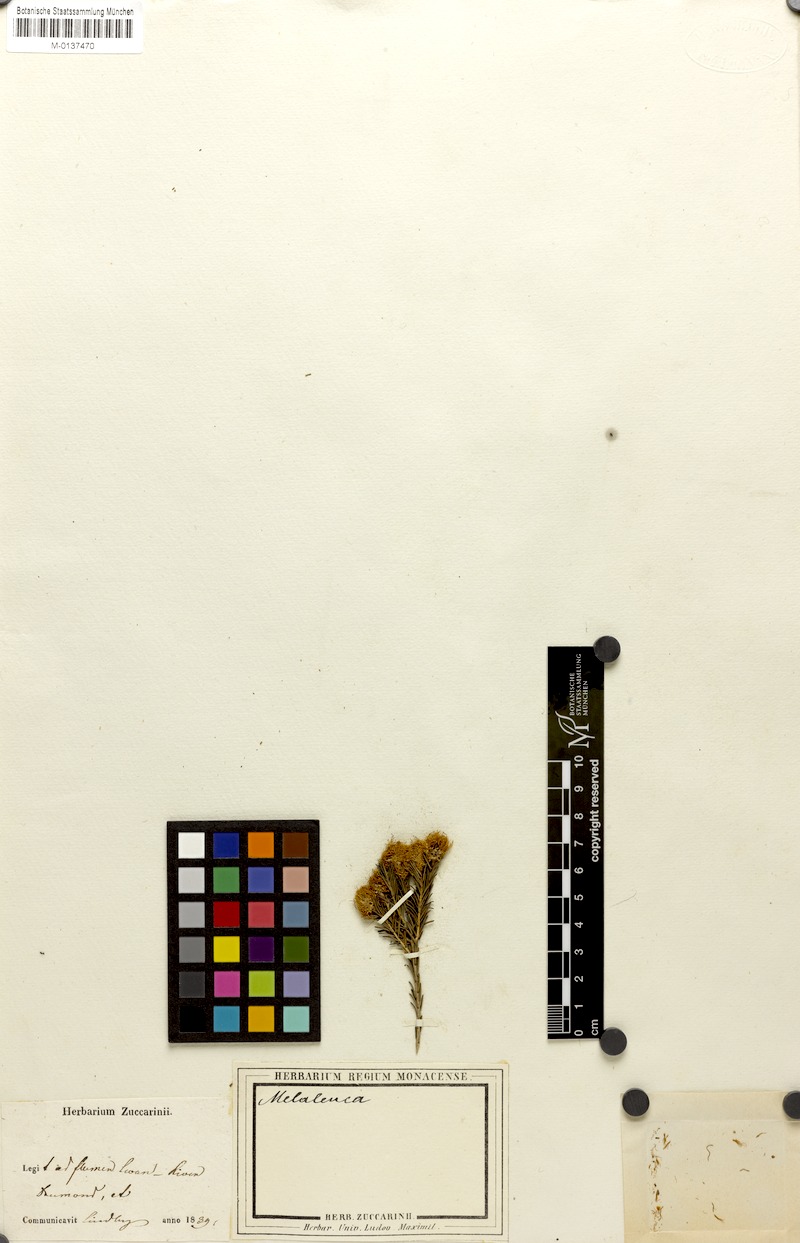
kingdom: Plantae
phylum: Tracheophyta
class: Magnoliopsida
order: Myrtales
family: Myrtaceae
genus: Melaleuca
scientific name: Melaleuca
